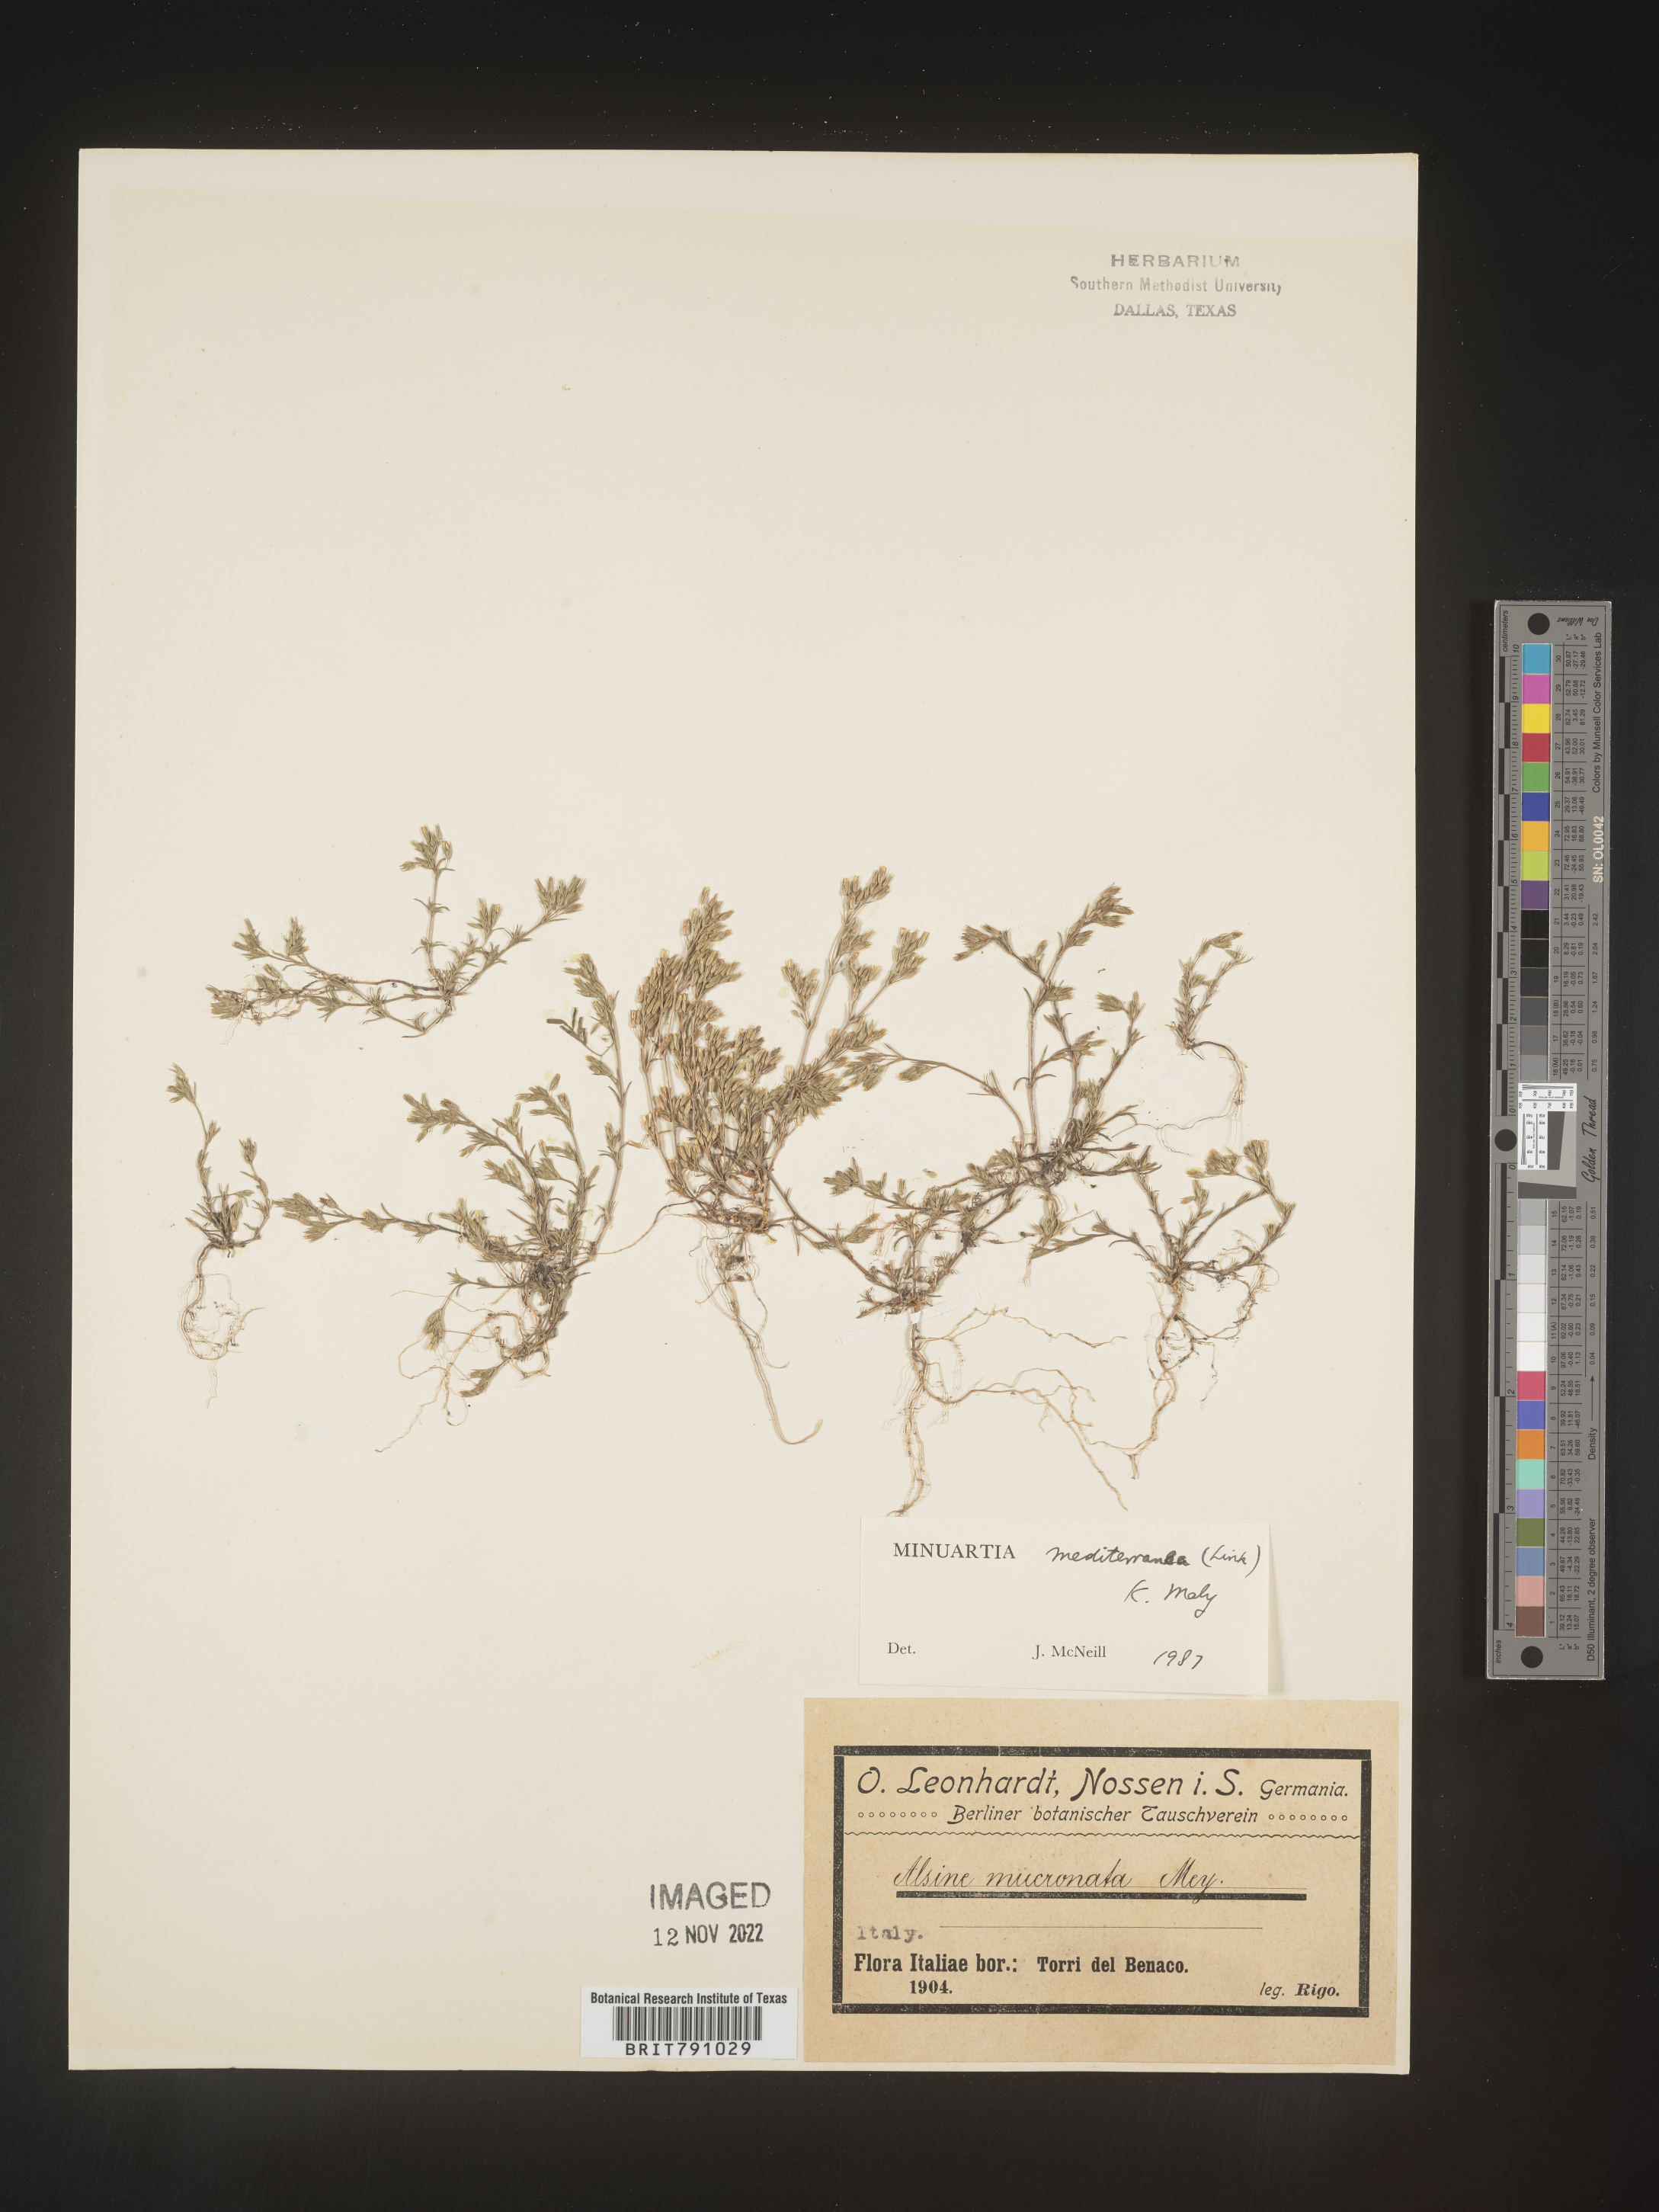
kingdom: Plantae
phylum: Tracheophyta
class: Magnoliopsida
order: Caryophyllales
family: Caryophyllaceae
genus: Minuartia
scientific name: Minuartia
